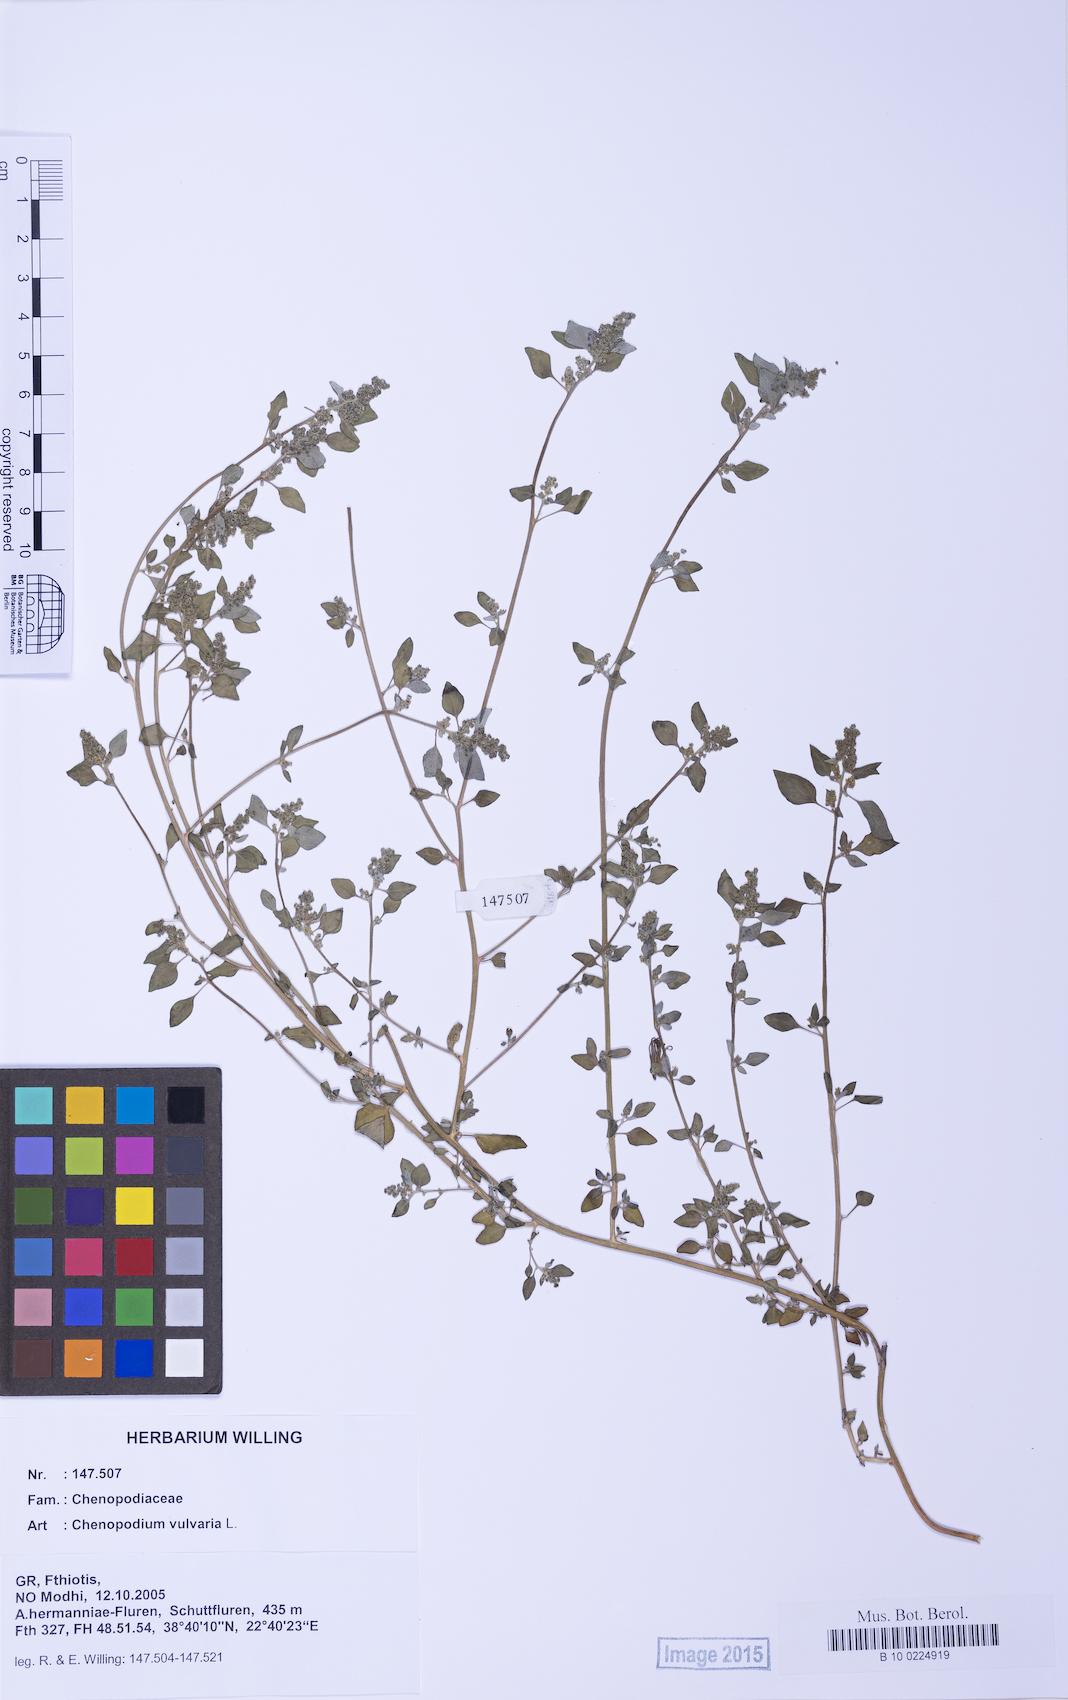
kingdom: Plantae
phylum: Tracheophyta
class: Magnoliopsida
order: Caryophyllales
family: Amaranthaceae
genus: Chenopodium
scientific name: Chenopodium vulvaria
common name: Stinking goosefoot
